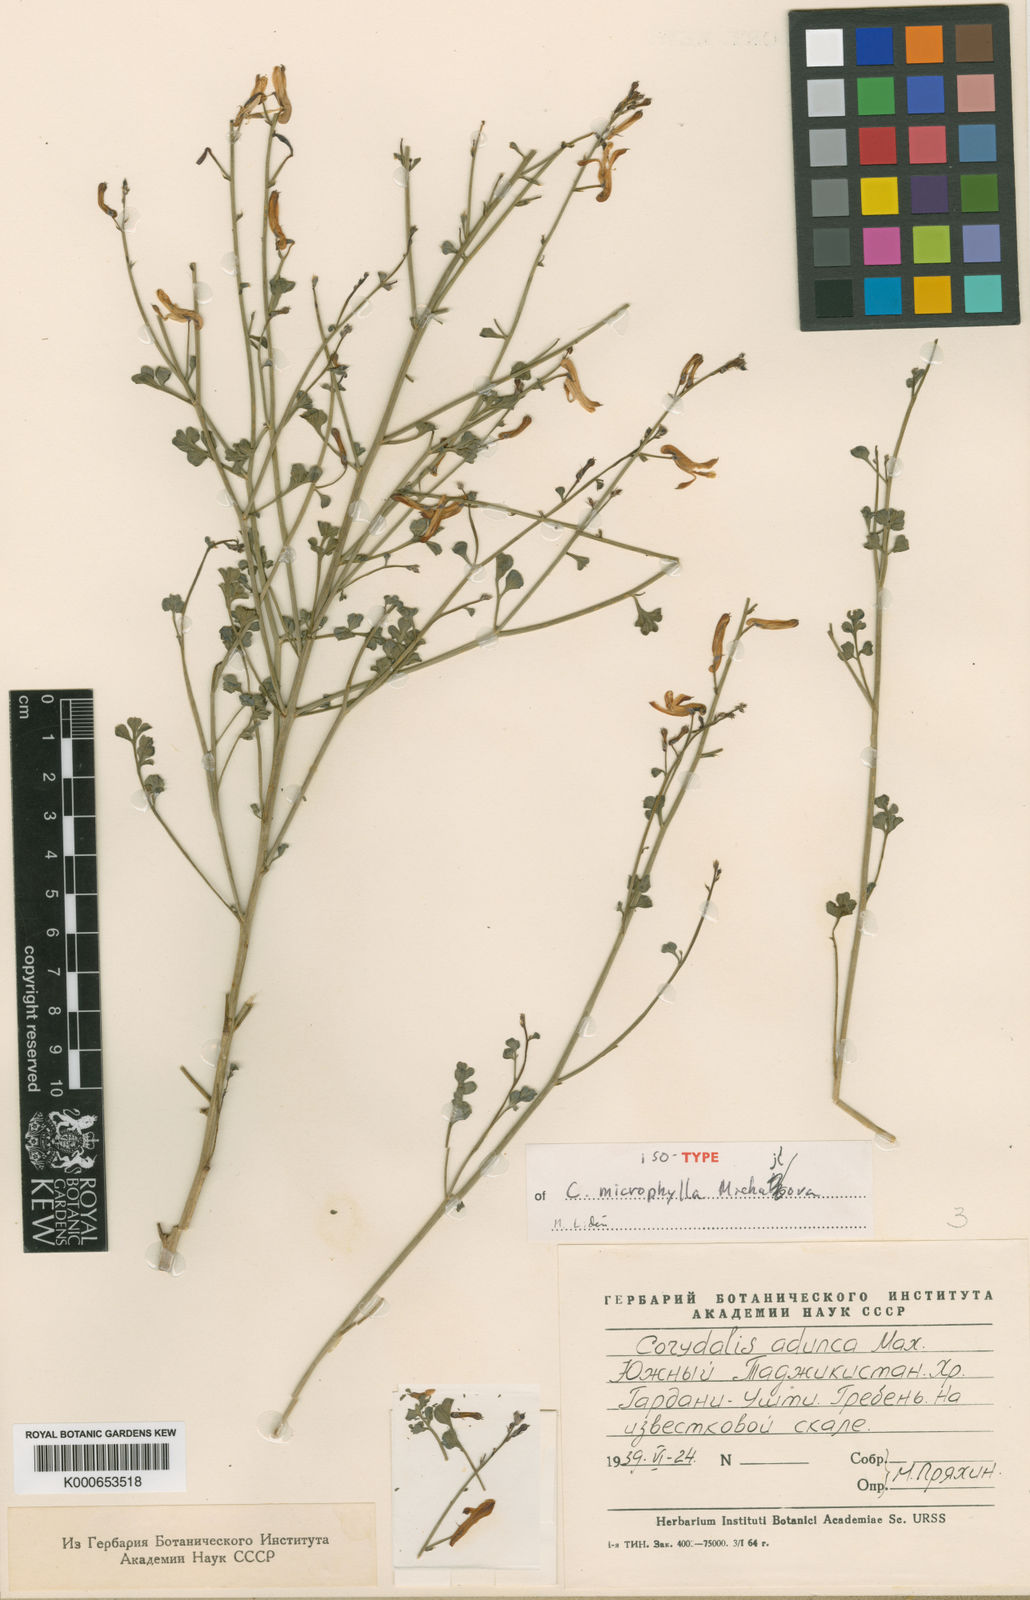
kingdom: Plantae
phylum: Tracheophyta
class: Magnoliopsida
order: Ranunculales
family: Papaveraceae
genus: Corydalis
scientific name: Corydalis
